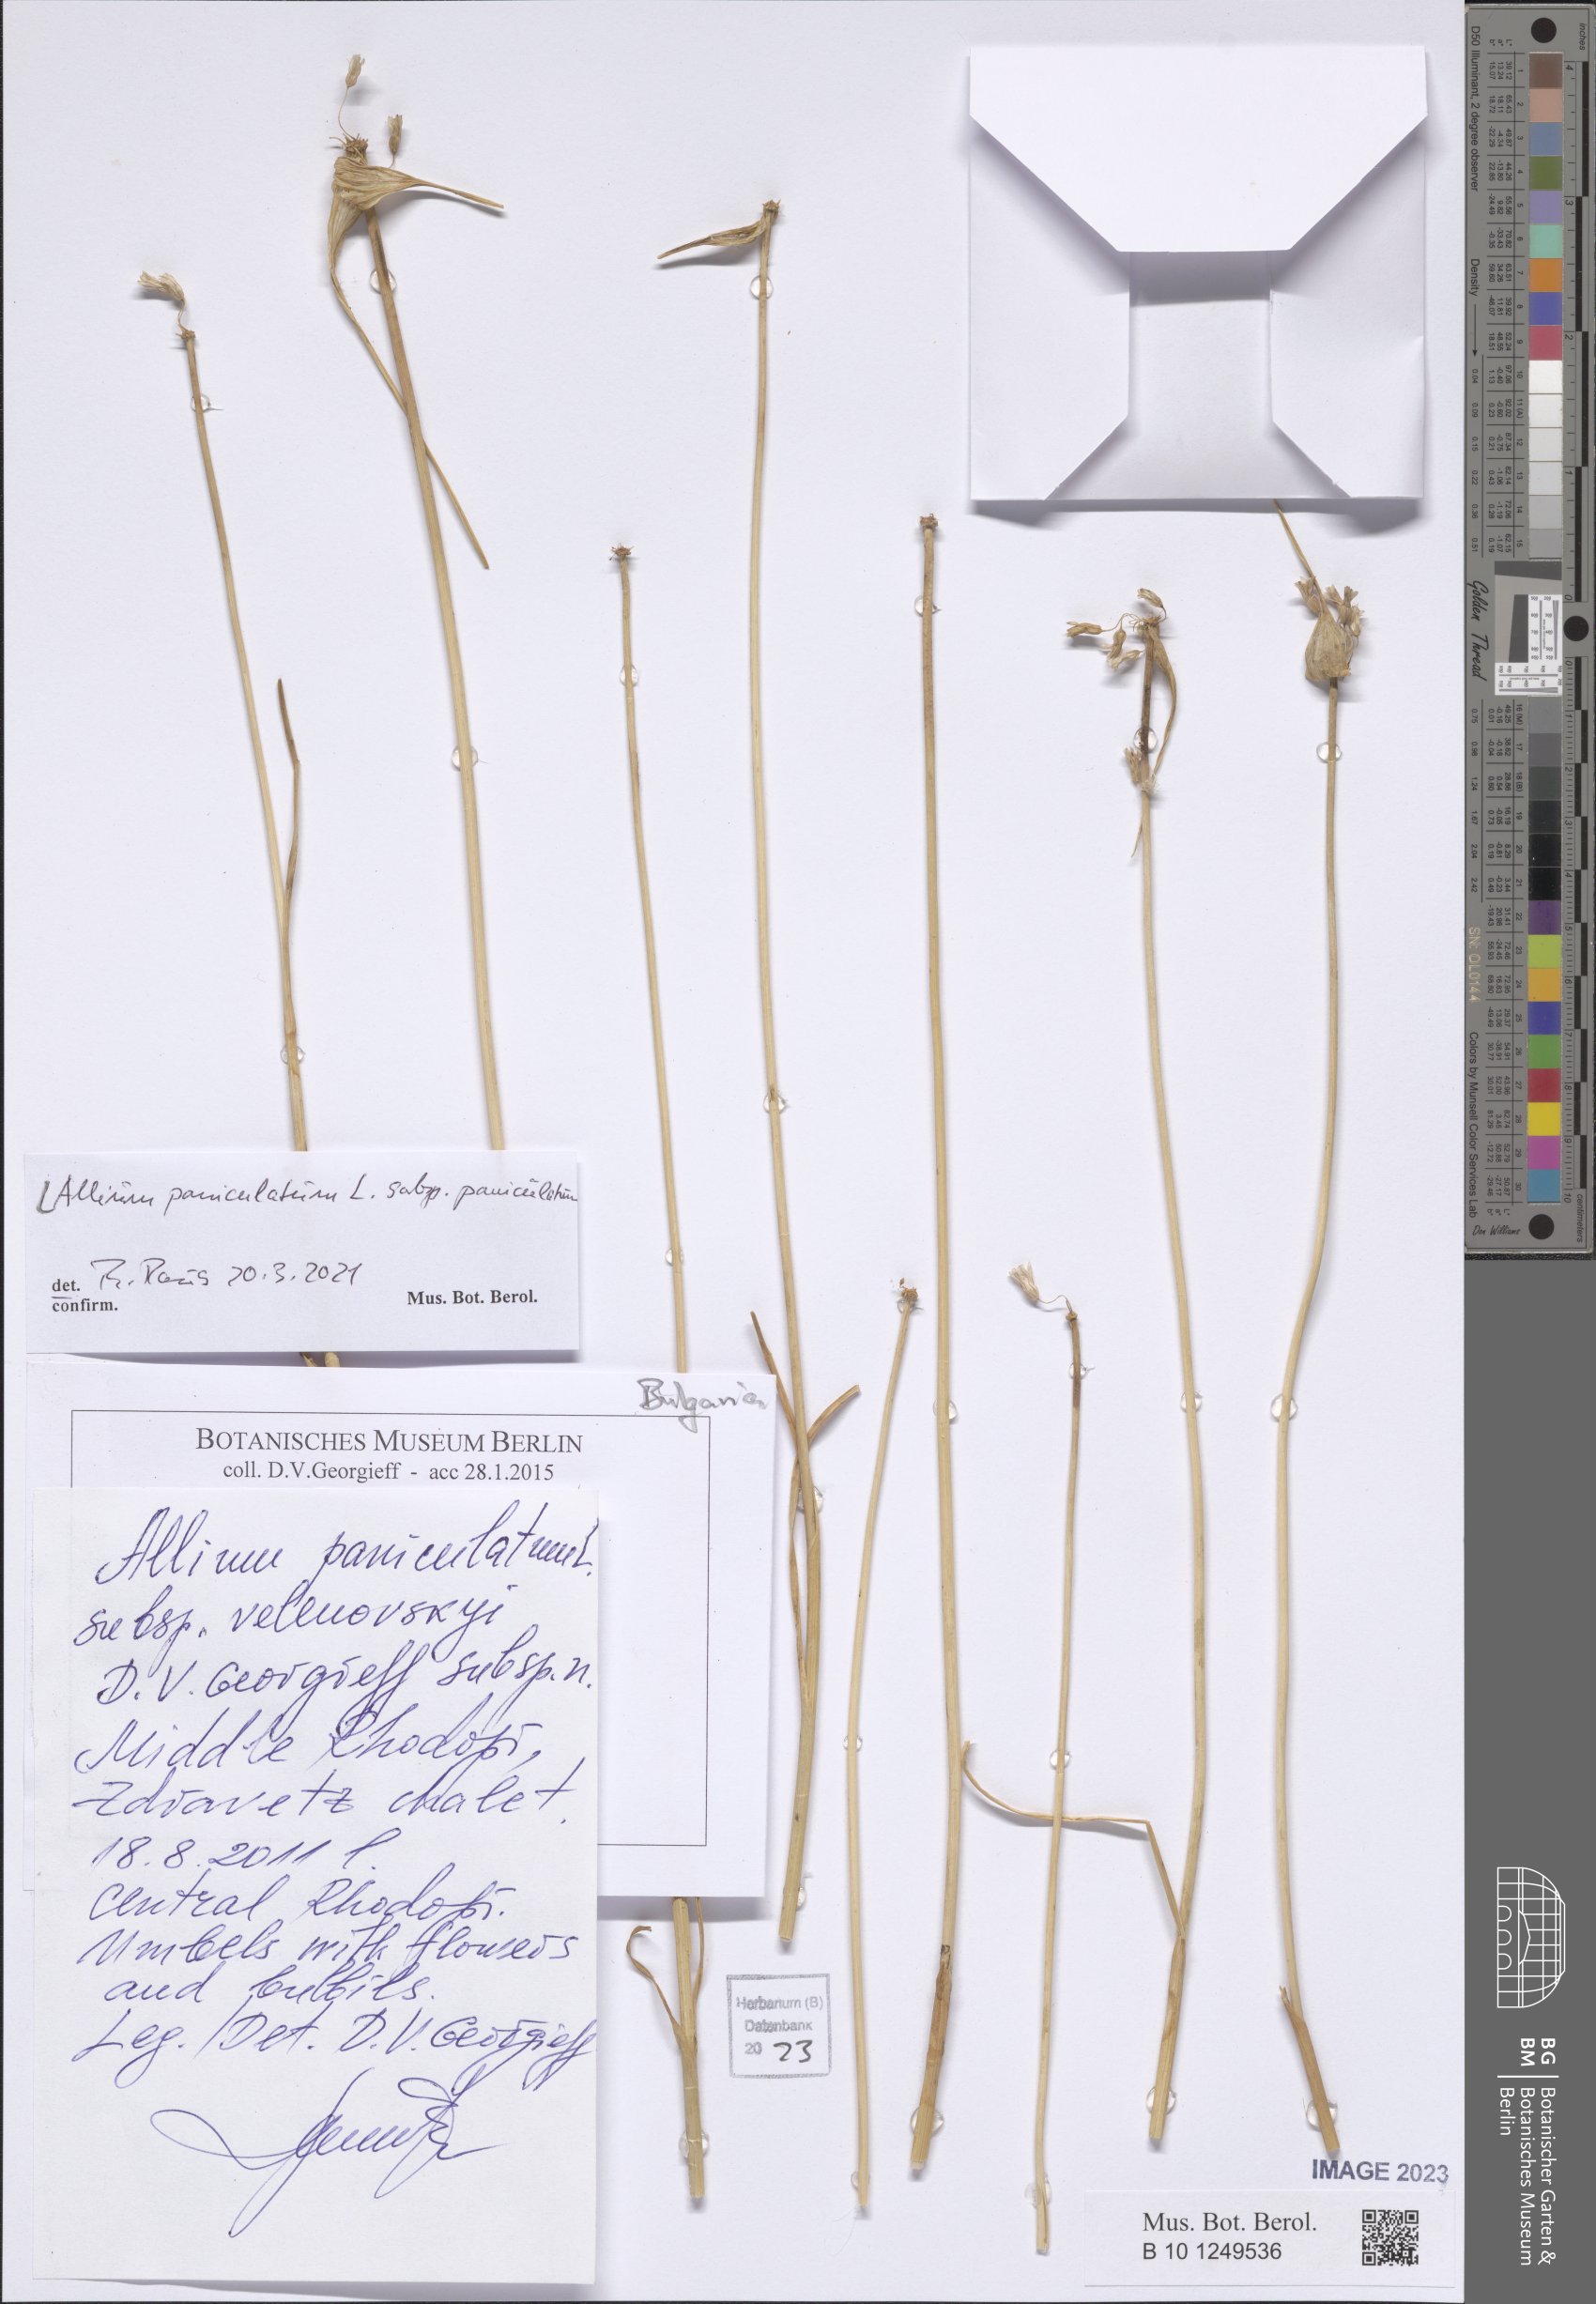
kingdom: Plantae
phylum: Tracheophyta
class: Liliopsida
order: Asparagales
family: Amaryllidaceae
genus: Allium
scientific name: Allium paniculatum
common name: Pale garlic
